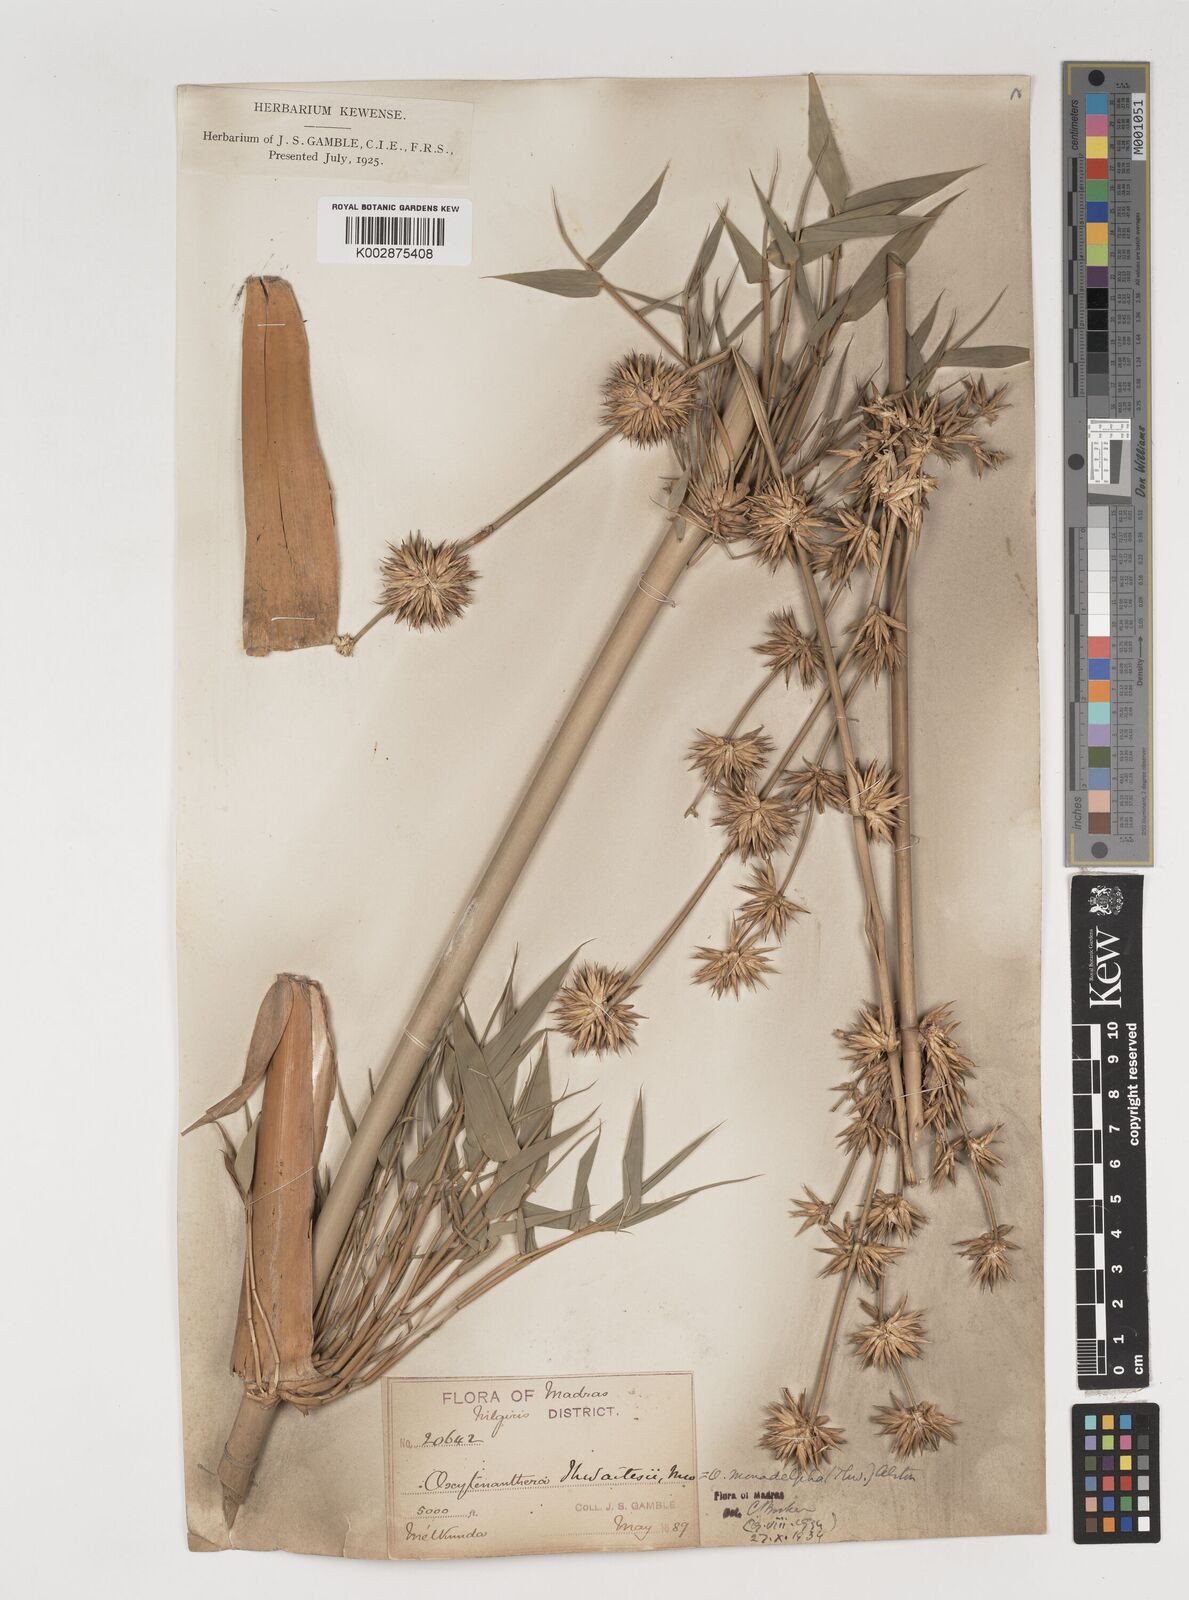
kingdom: Plantae
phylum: Tracheophyta
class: Liliopsida
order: Poales
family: Poaceae
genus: Pseudoxytenanthera
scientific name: Pseudoxytenanthera monadelpha
